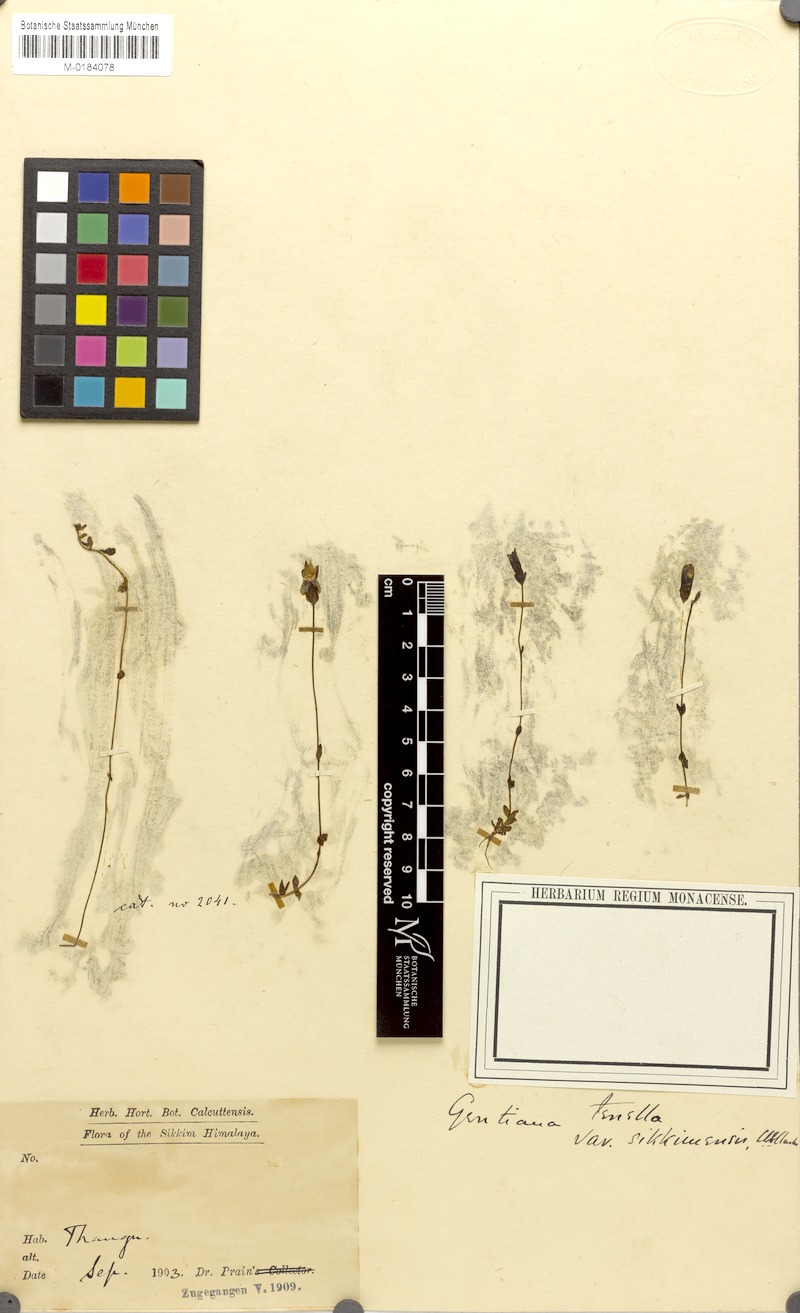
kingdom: Plantae
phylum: Tracheophyta
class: Magnoliopsida
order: Gentianales
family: Gentianaceae
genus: Comastoma
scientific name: Comastoma pedunculatum
